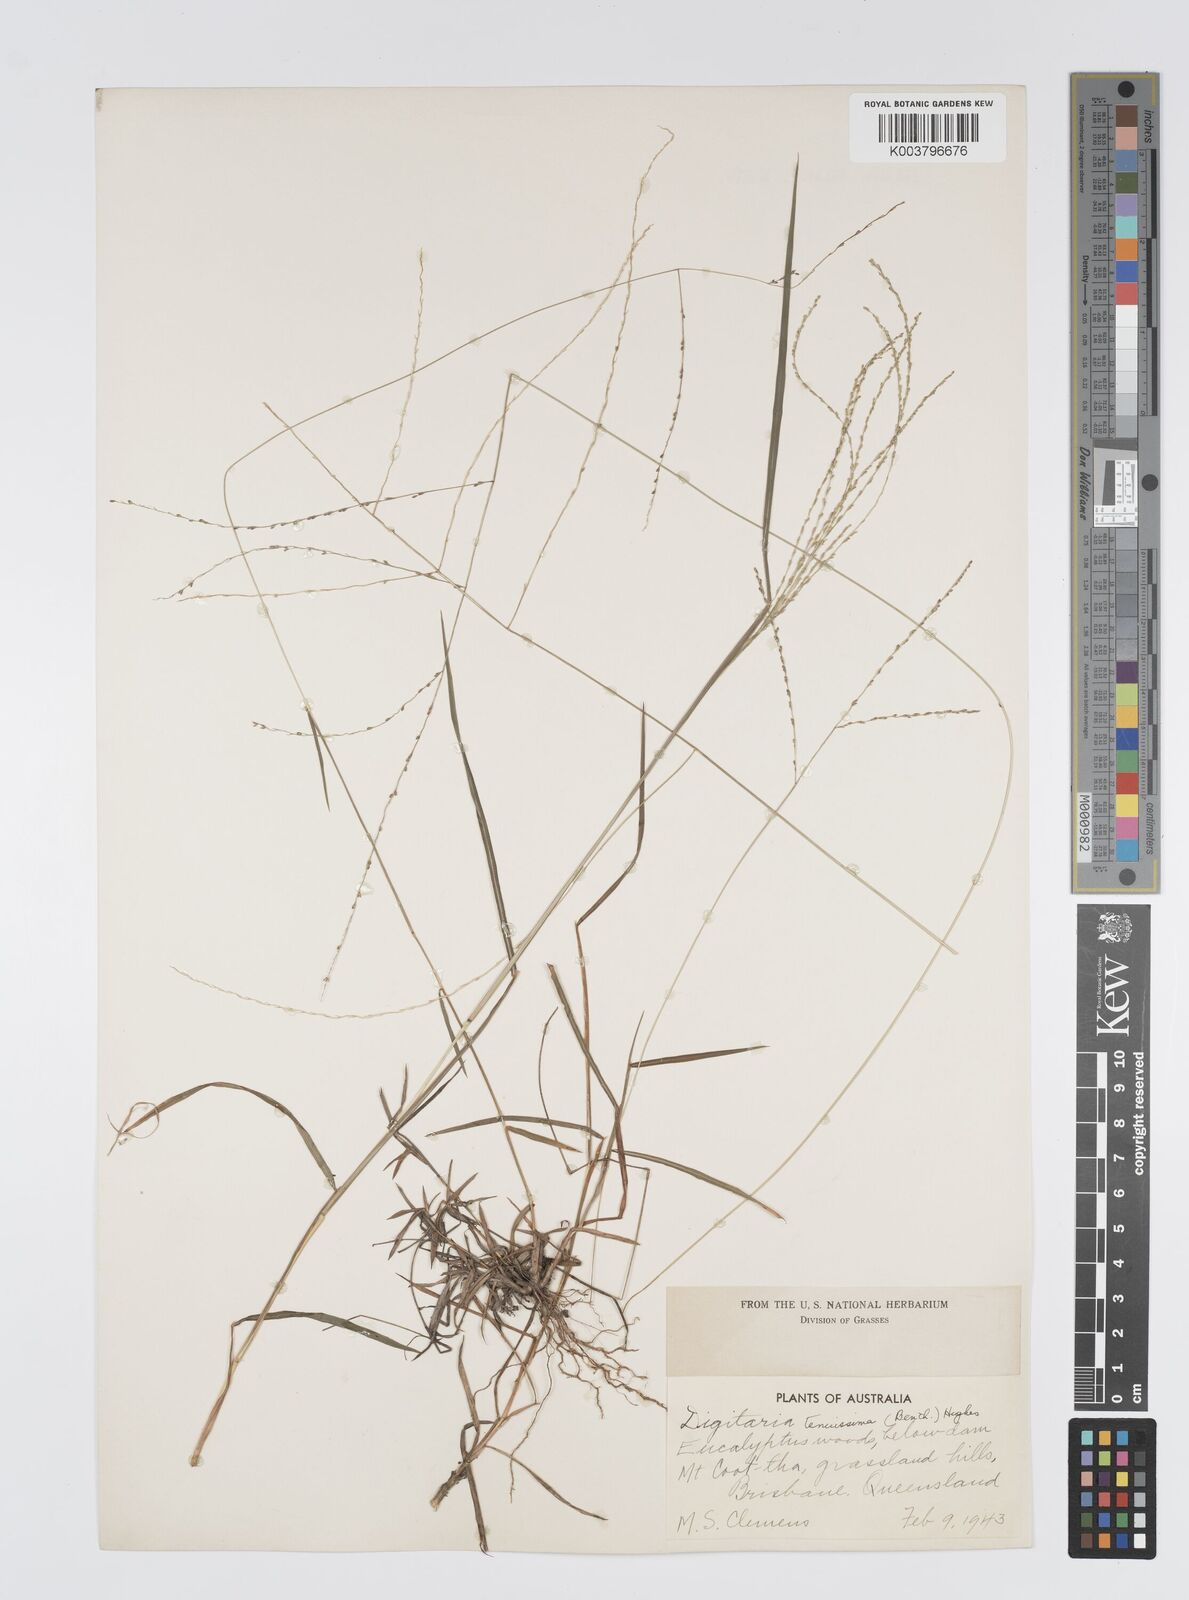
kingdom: Plantae
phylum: Tracheophyta
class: Liliopsida
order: Poales
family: Poaceae
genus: Digitaria
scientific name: Digitaria ramularis
